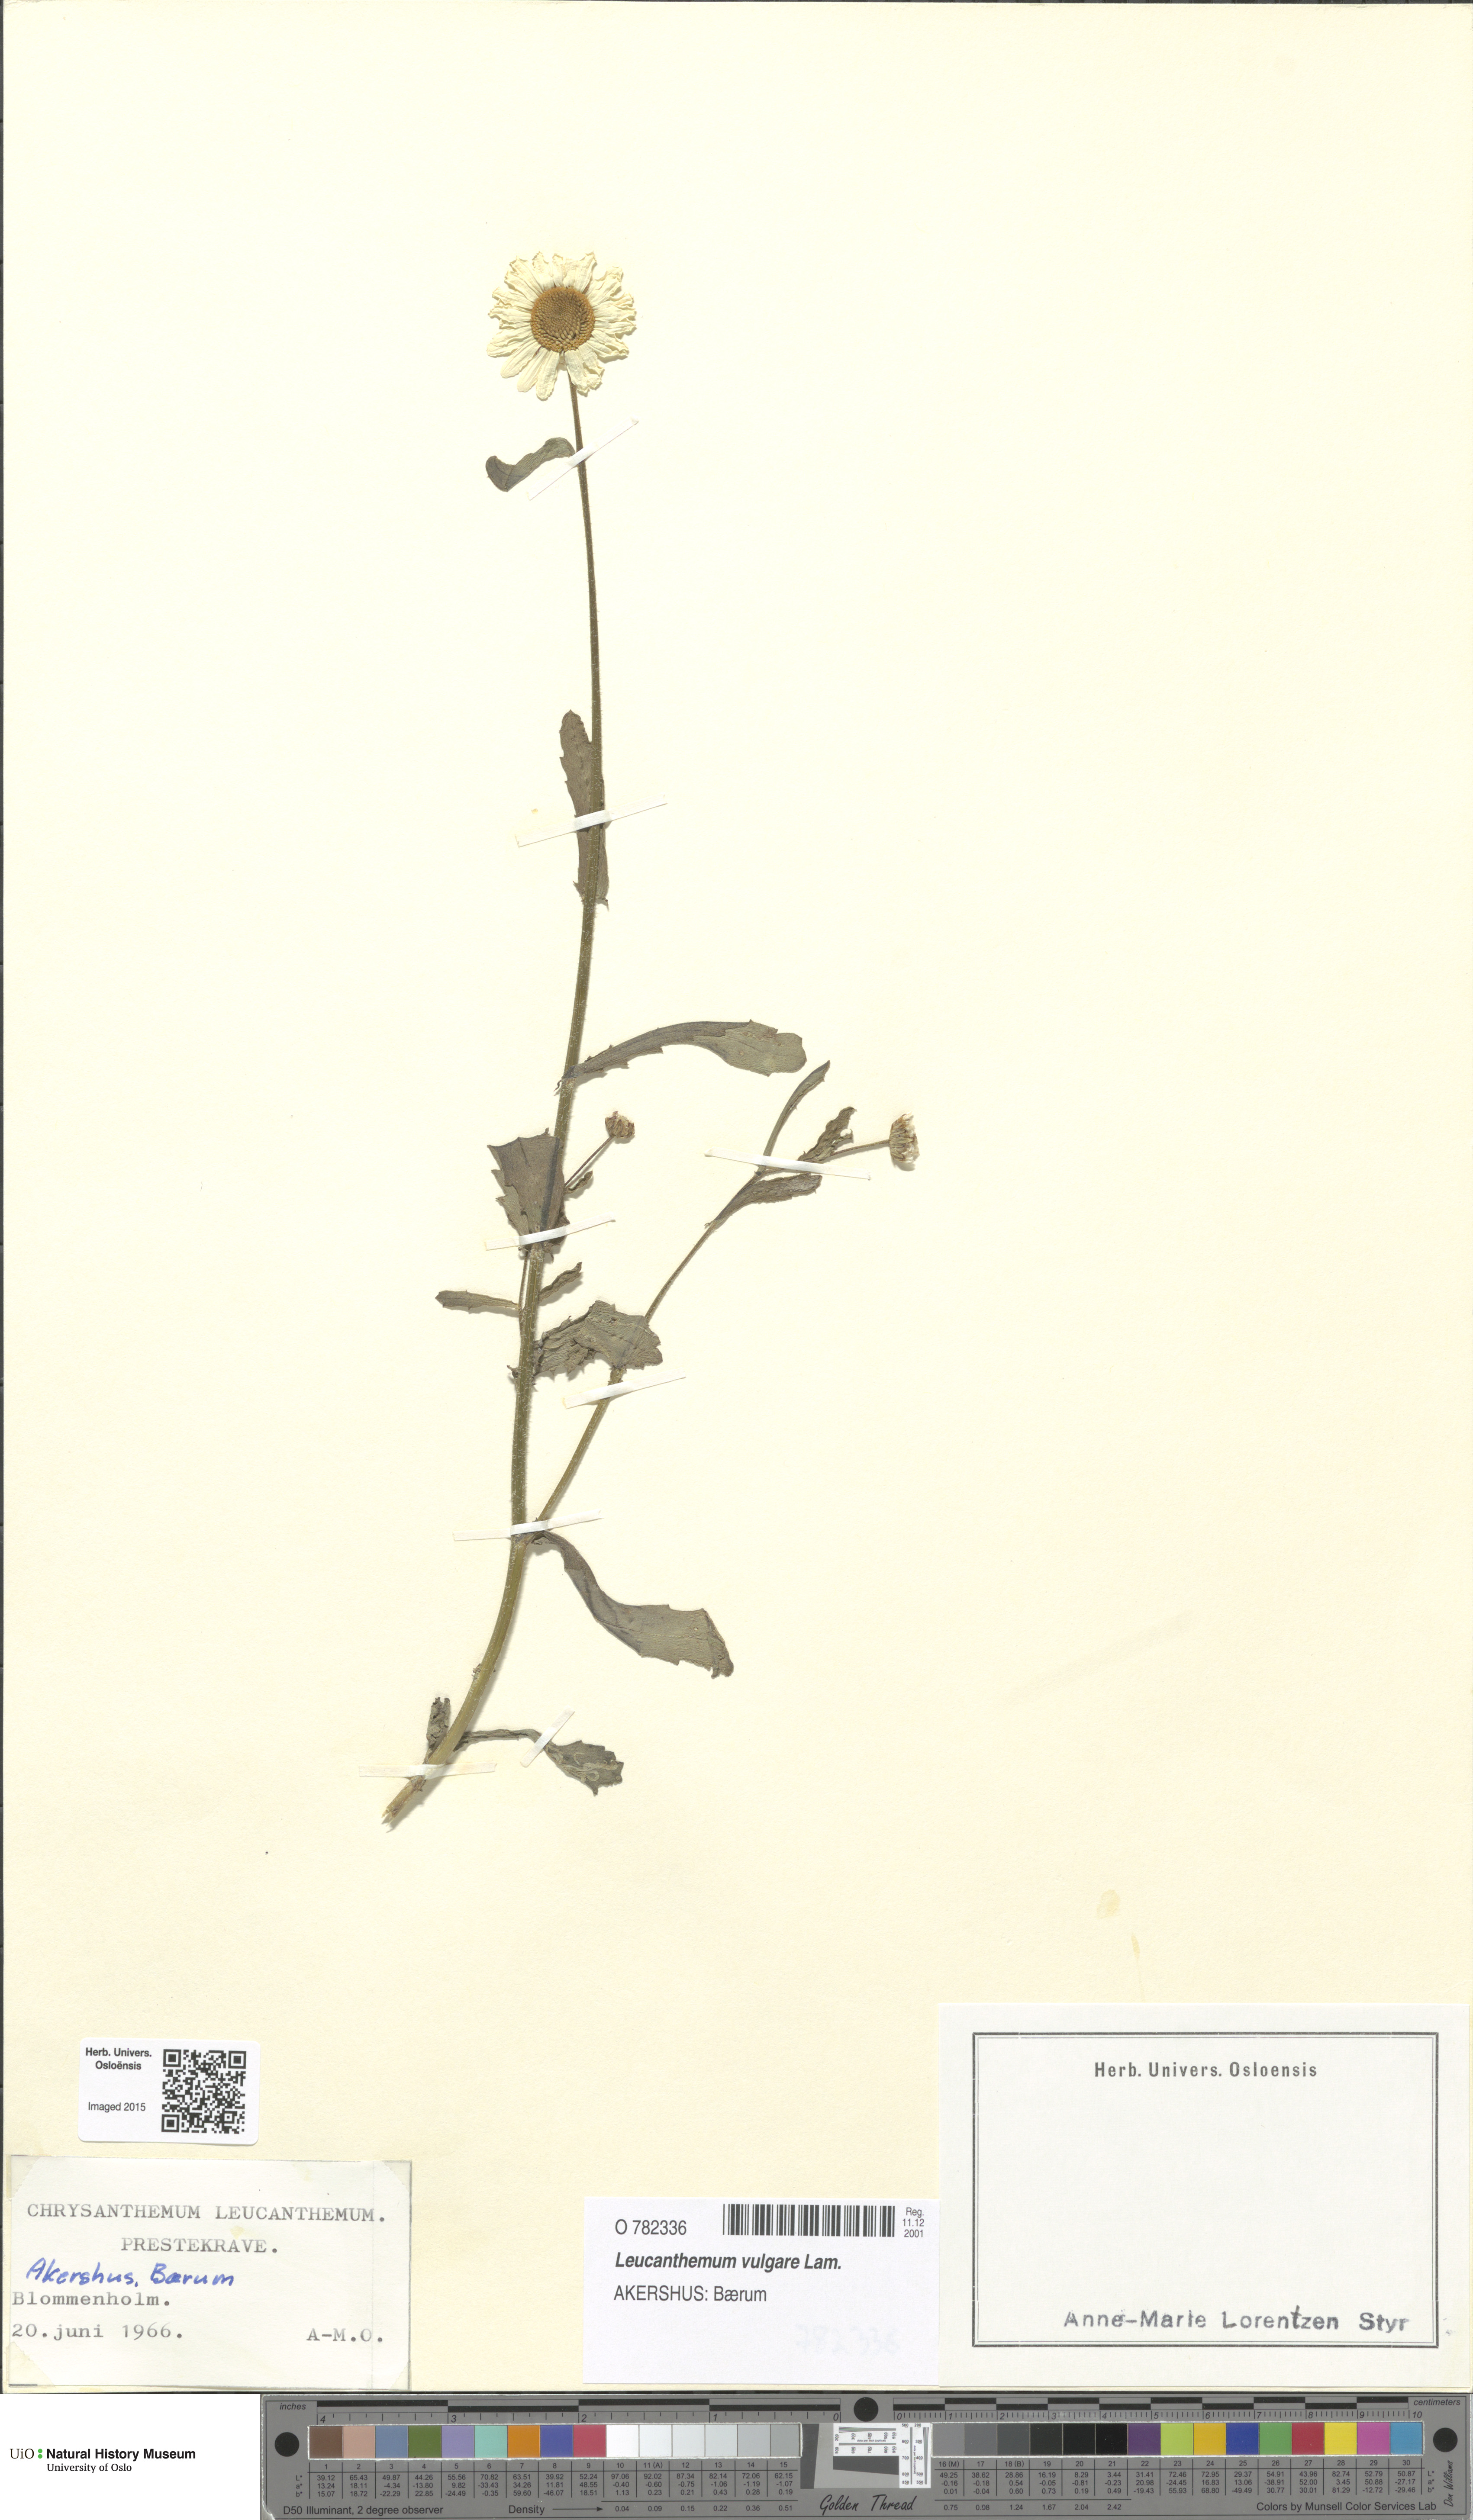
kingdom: Plantae
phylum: Tracheophyta
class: Magnoliopsida
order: Asterales
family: Asteraceae
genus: Leucanthemum
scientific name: Leucanthemum vulgare
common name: Oxeye daisy
